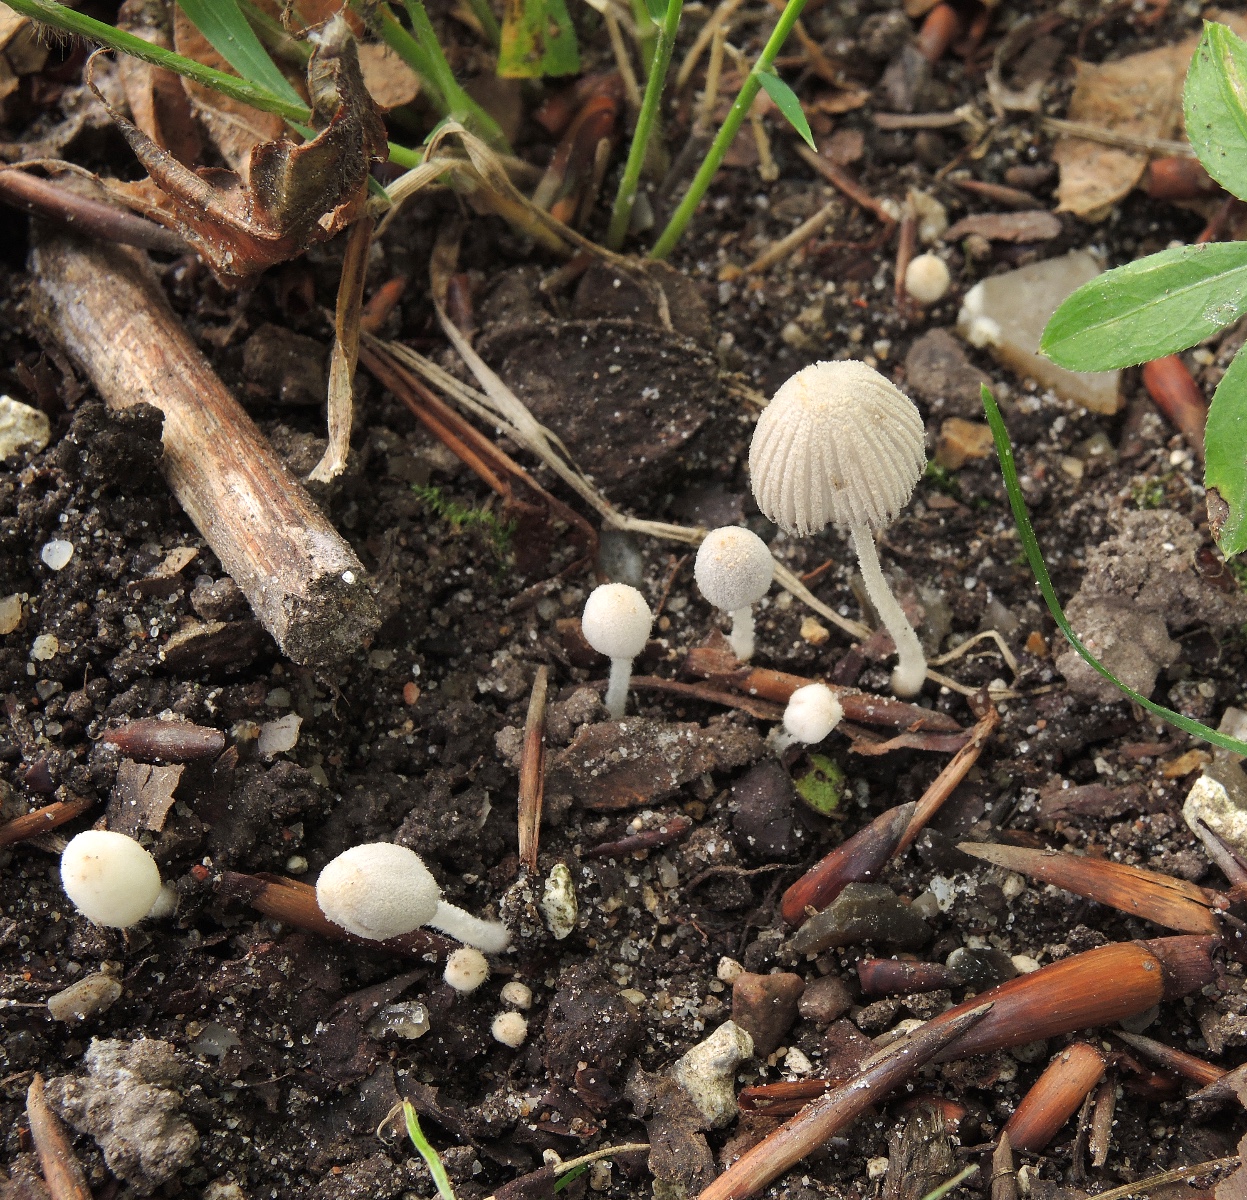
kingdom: Fungi
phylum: Basidiomycota
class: Agaricomycetes
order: Agaricales
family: Psathyrellaceae
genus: Coprinopsis
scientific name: Coprinopsis
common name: blækhat
